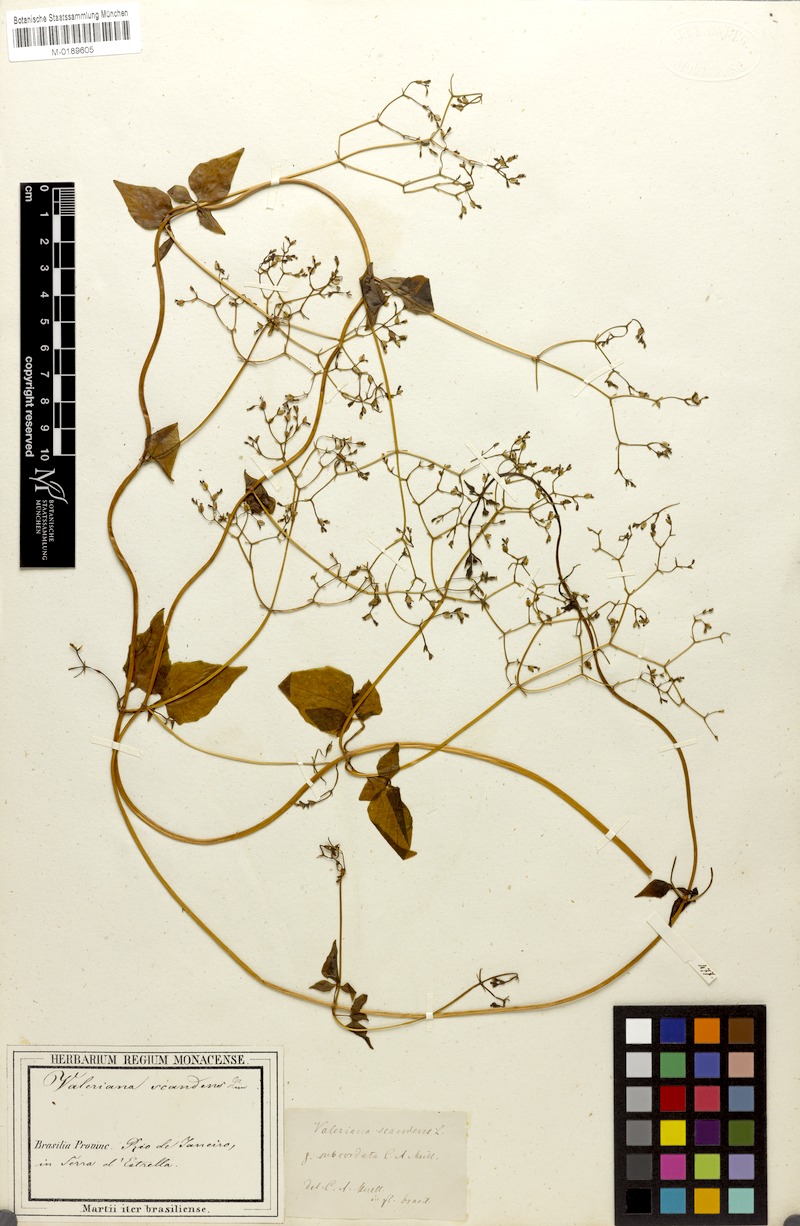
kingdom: Plantae
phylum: Tracheophyta
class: Magnoliopsida
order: Dipsacales
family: Caprifoliaceae
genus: Valeriana
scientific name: Valeriana scandens
